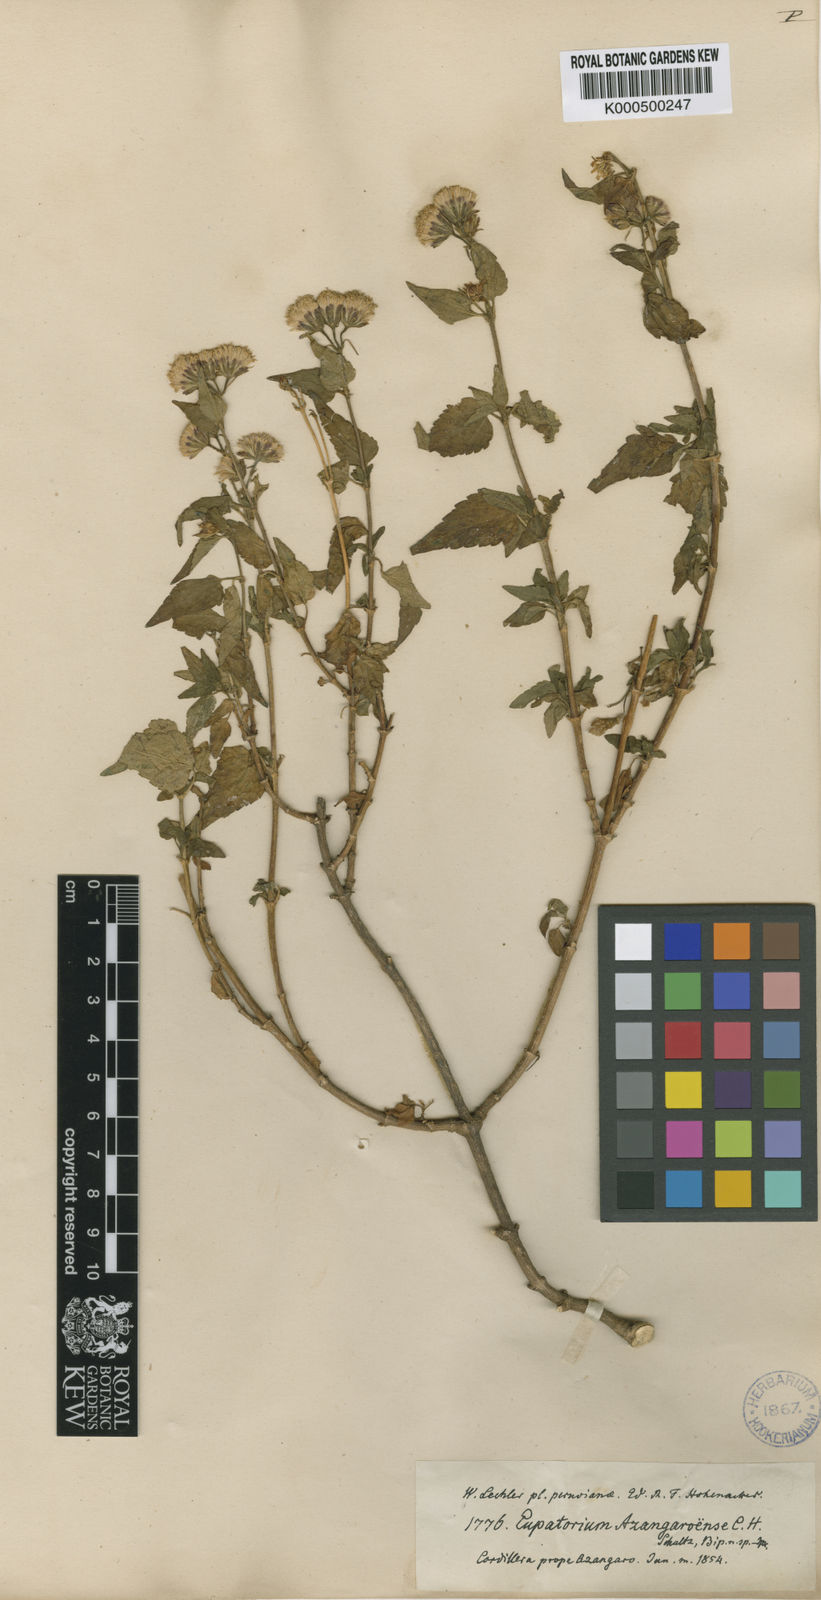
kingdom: Plantae
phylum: Tracheophyta
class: Magnoliopsida
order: Asterales
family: Asteraceae
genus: Ageratina
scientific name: Ageratina glechonophylla
